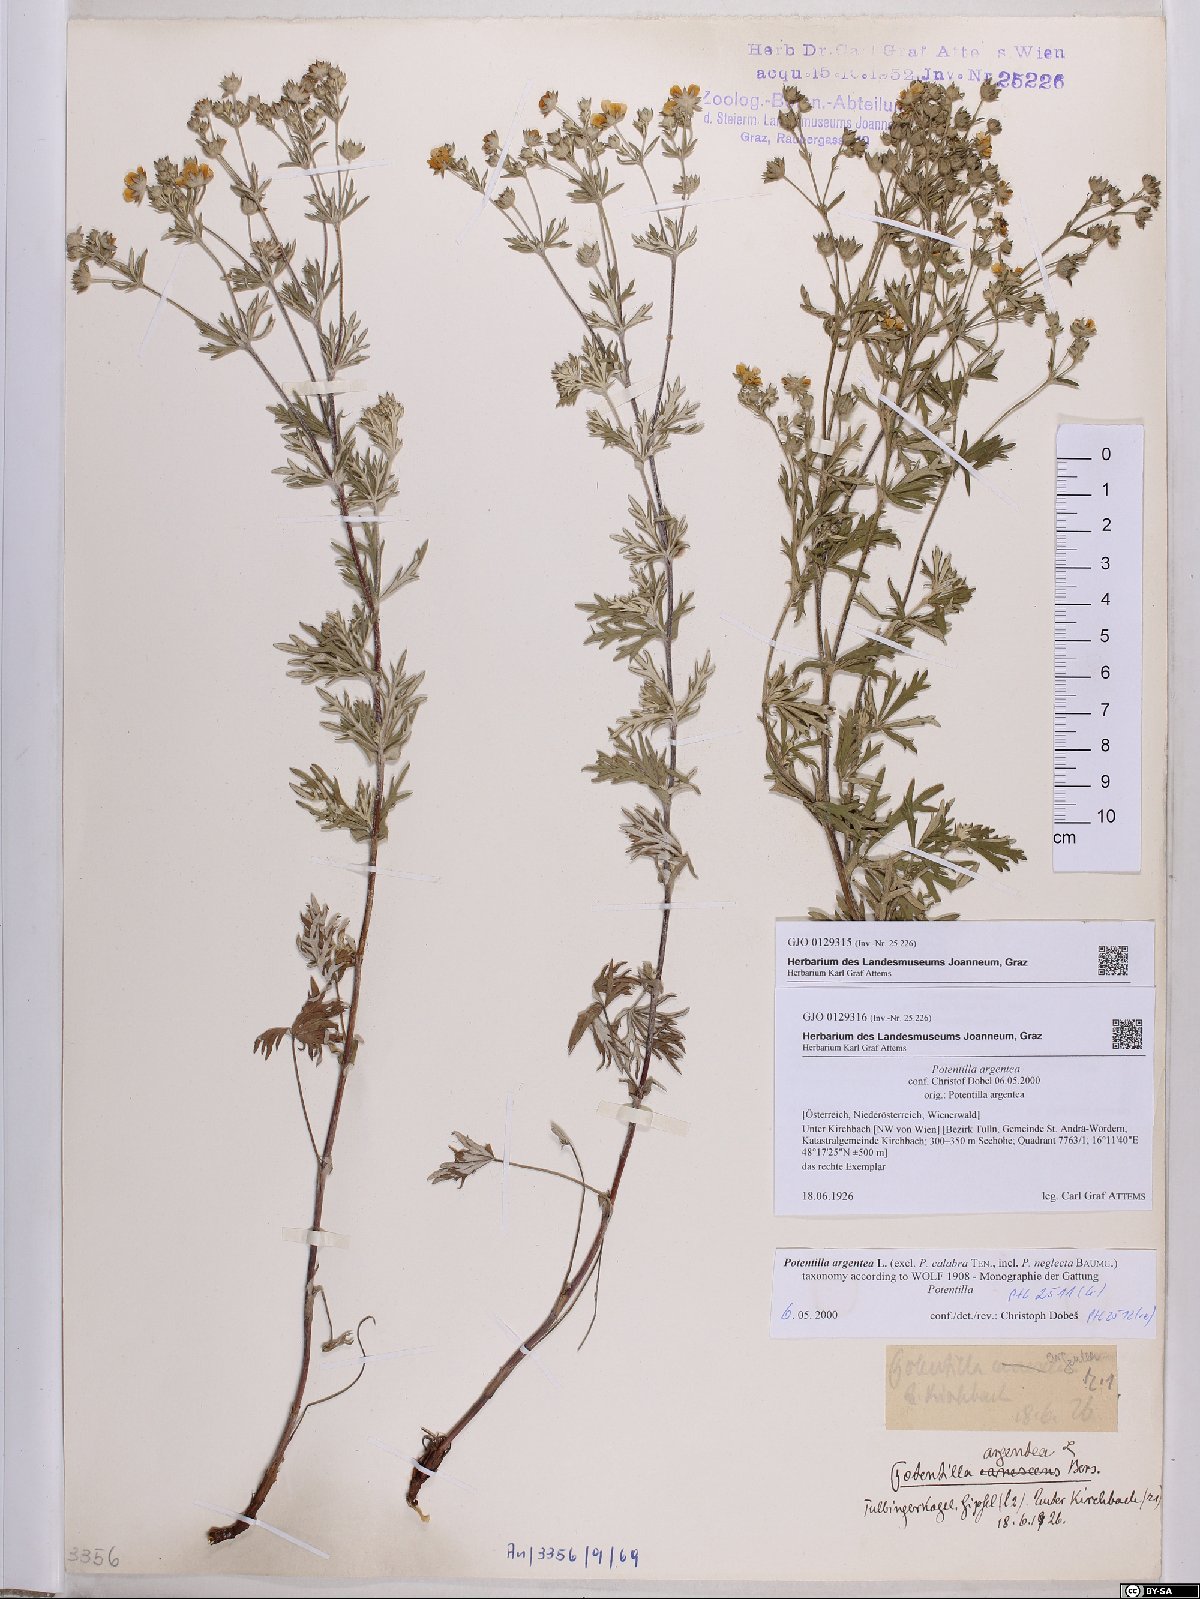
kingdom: Plantae
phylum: Tracheophyta
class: Magnoliopsida
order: Rosales
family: Rosaceae
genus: Potentilla
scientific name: Potentilla argentea
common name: Hoary cinquefoil
